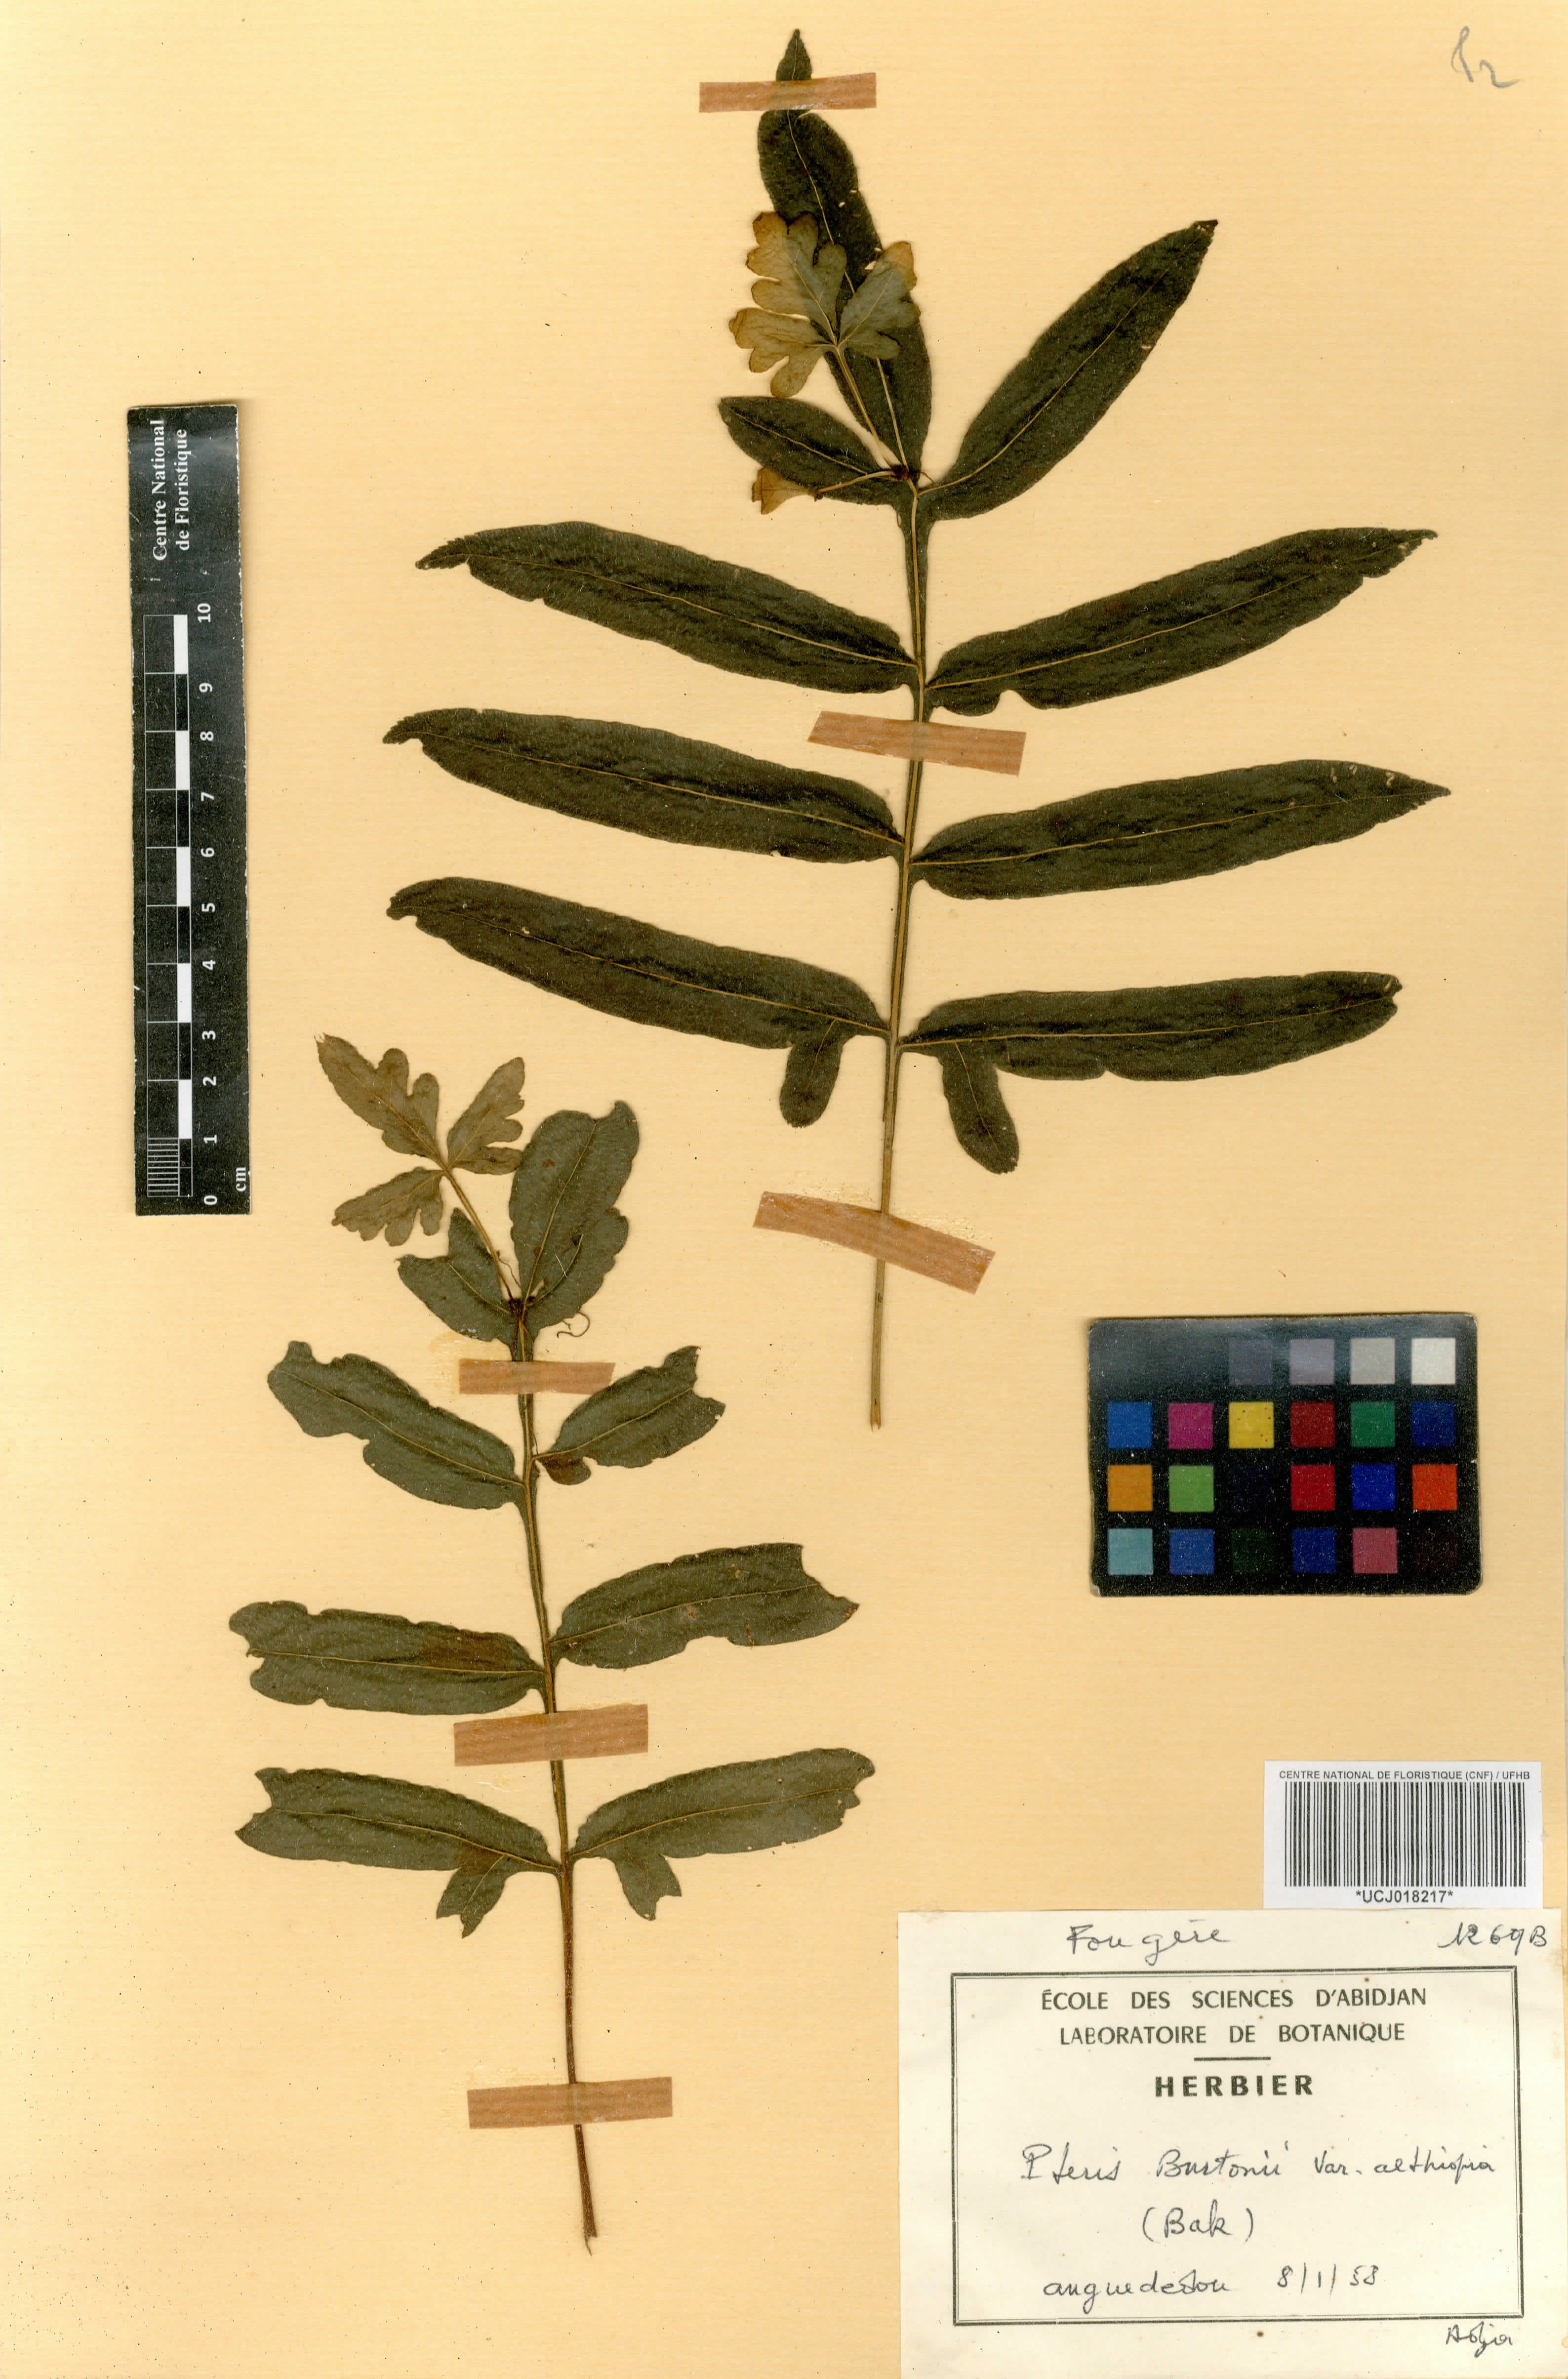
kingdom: Plantae
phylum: Tracheophyta
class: Polypodiopsida
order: Polypodiales
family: Pteridaceae
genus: Pteris
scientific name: Pteris burtonii
